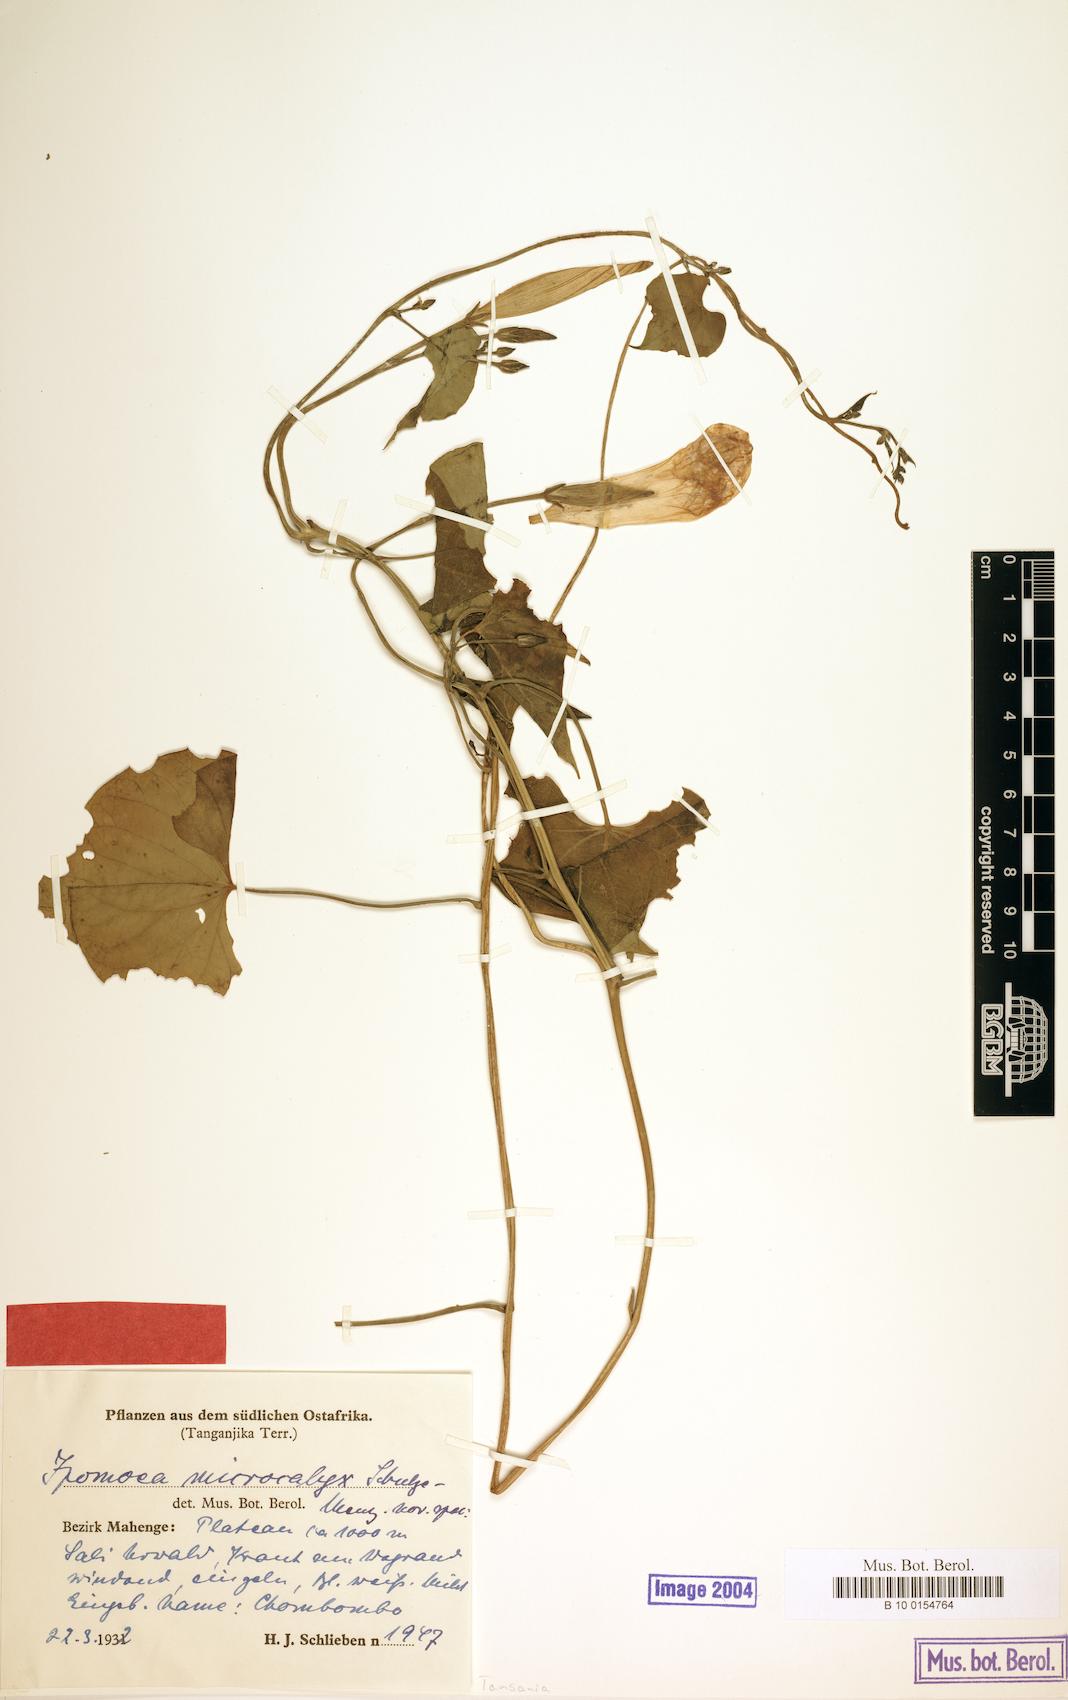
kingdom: Plantae
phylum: Tracheophyta
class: Magnoliopsida
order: Solanales
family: Convolvulaceae
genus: Ipomoea
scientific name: Ipomoea microcalyx
